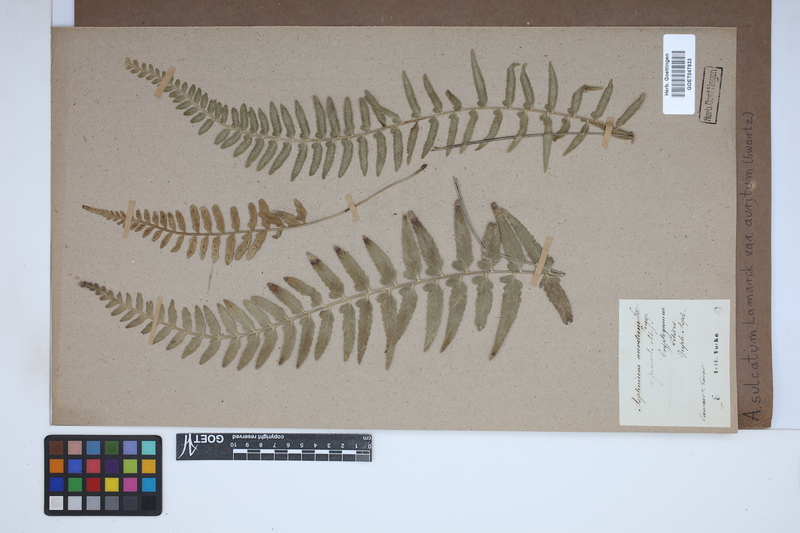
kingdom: Plantae
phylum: Tracheophyta
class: Polypodiopsida
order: Polypodiales
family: Aspleniaceae
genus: Asplenium
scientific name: Asplenium auritum
